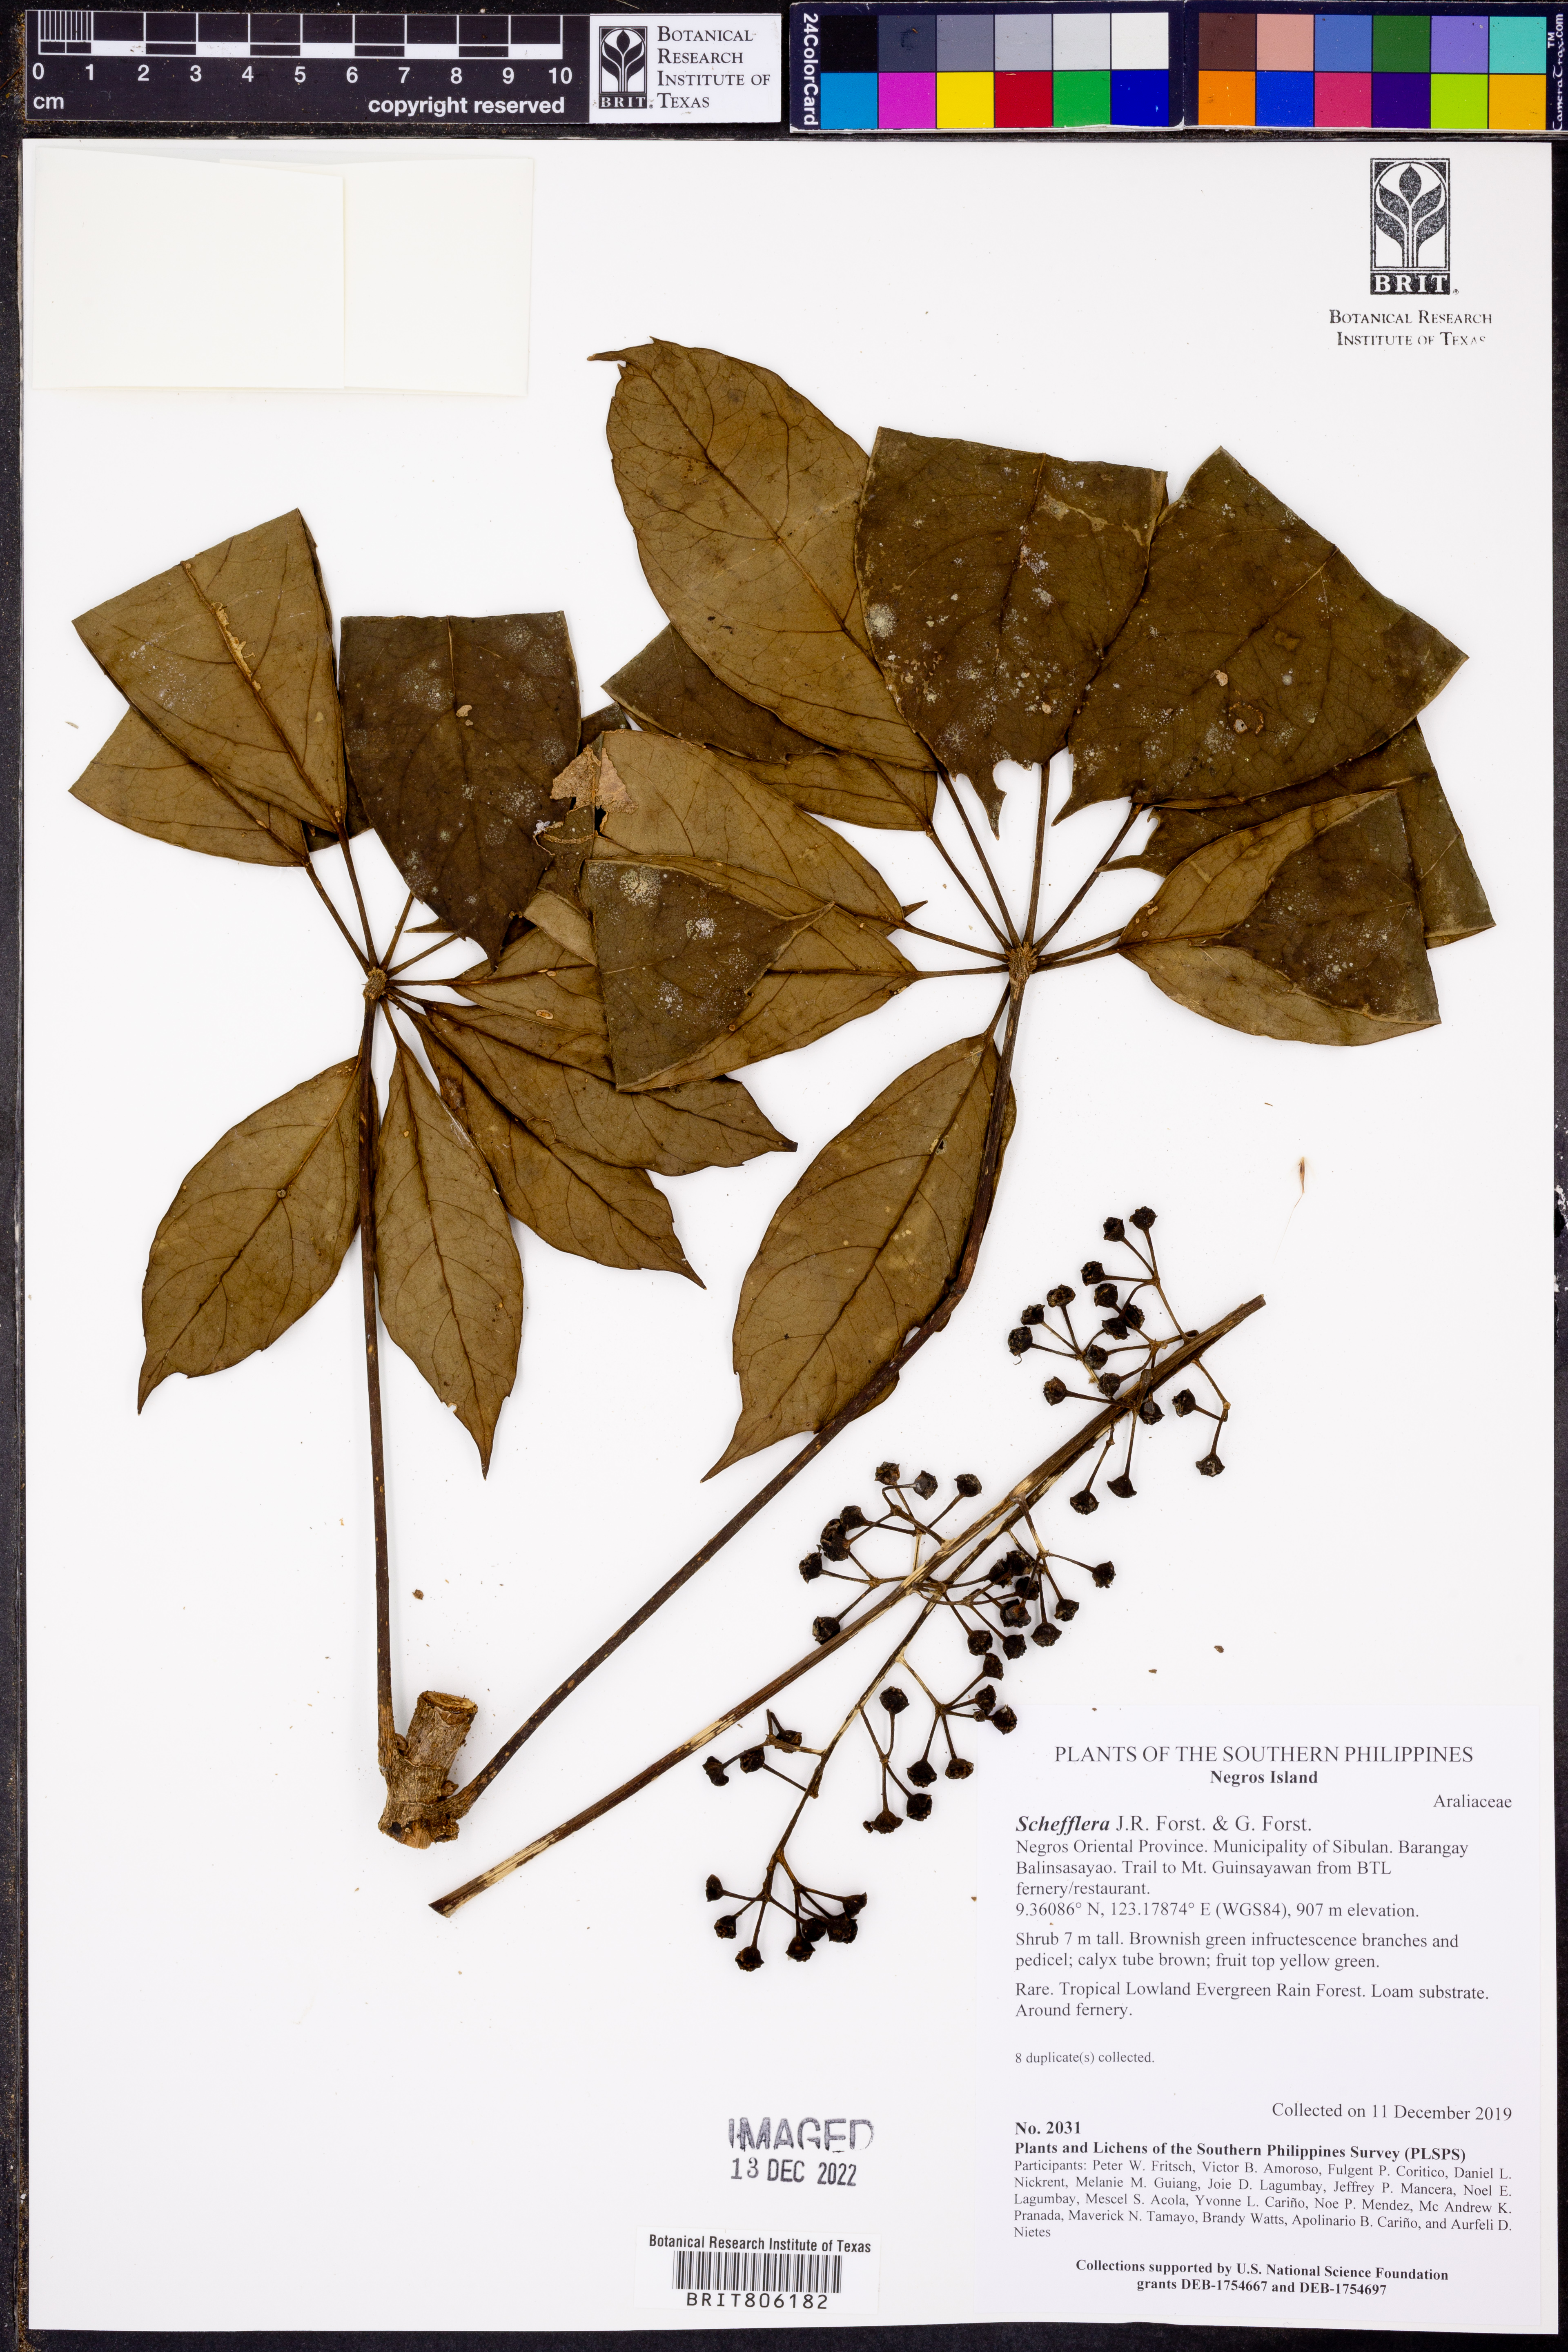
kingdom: Plantae
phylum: Tracheophyta
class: Magnoliopsida
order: Apiales
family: Araliaceae
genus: Schefflera
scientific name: Schefflera
